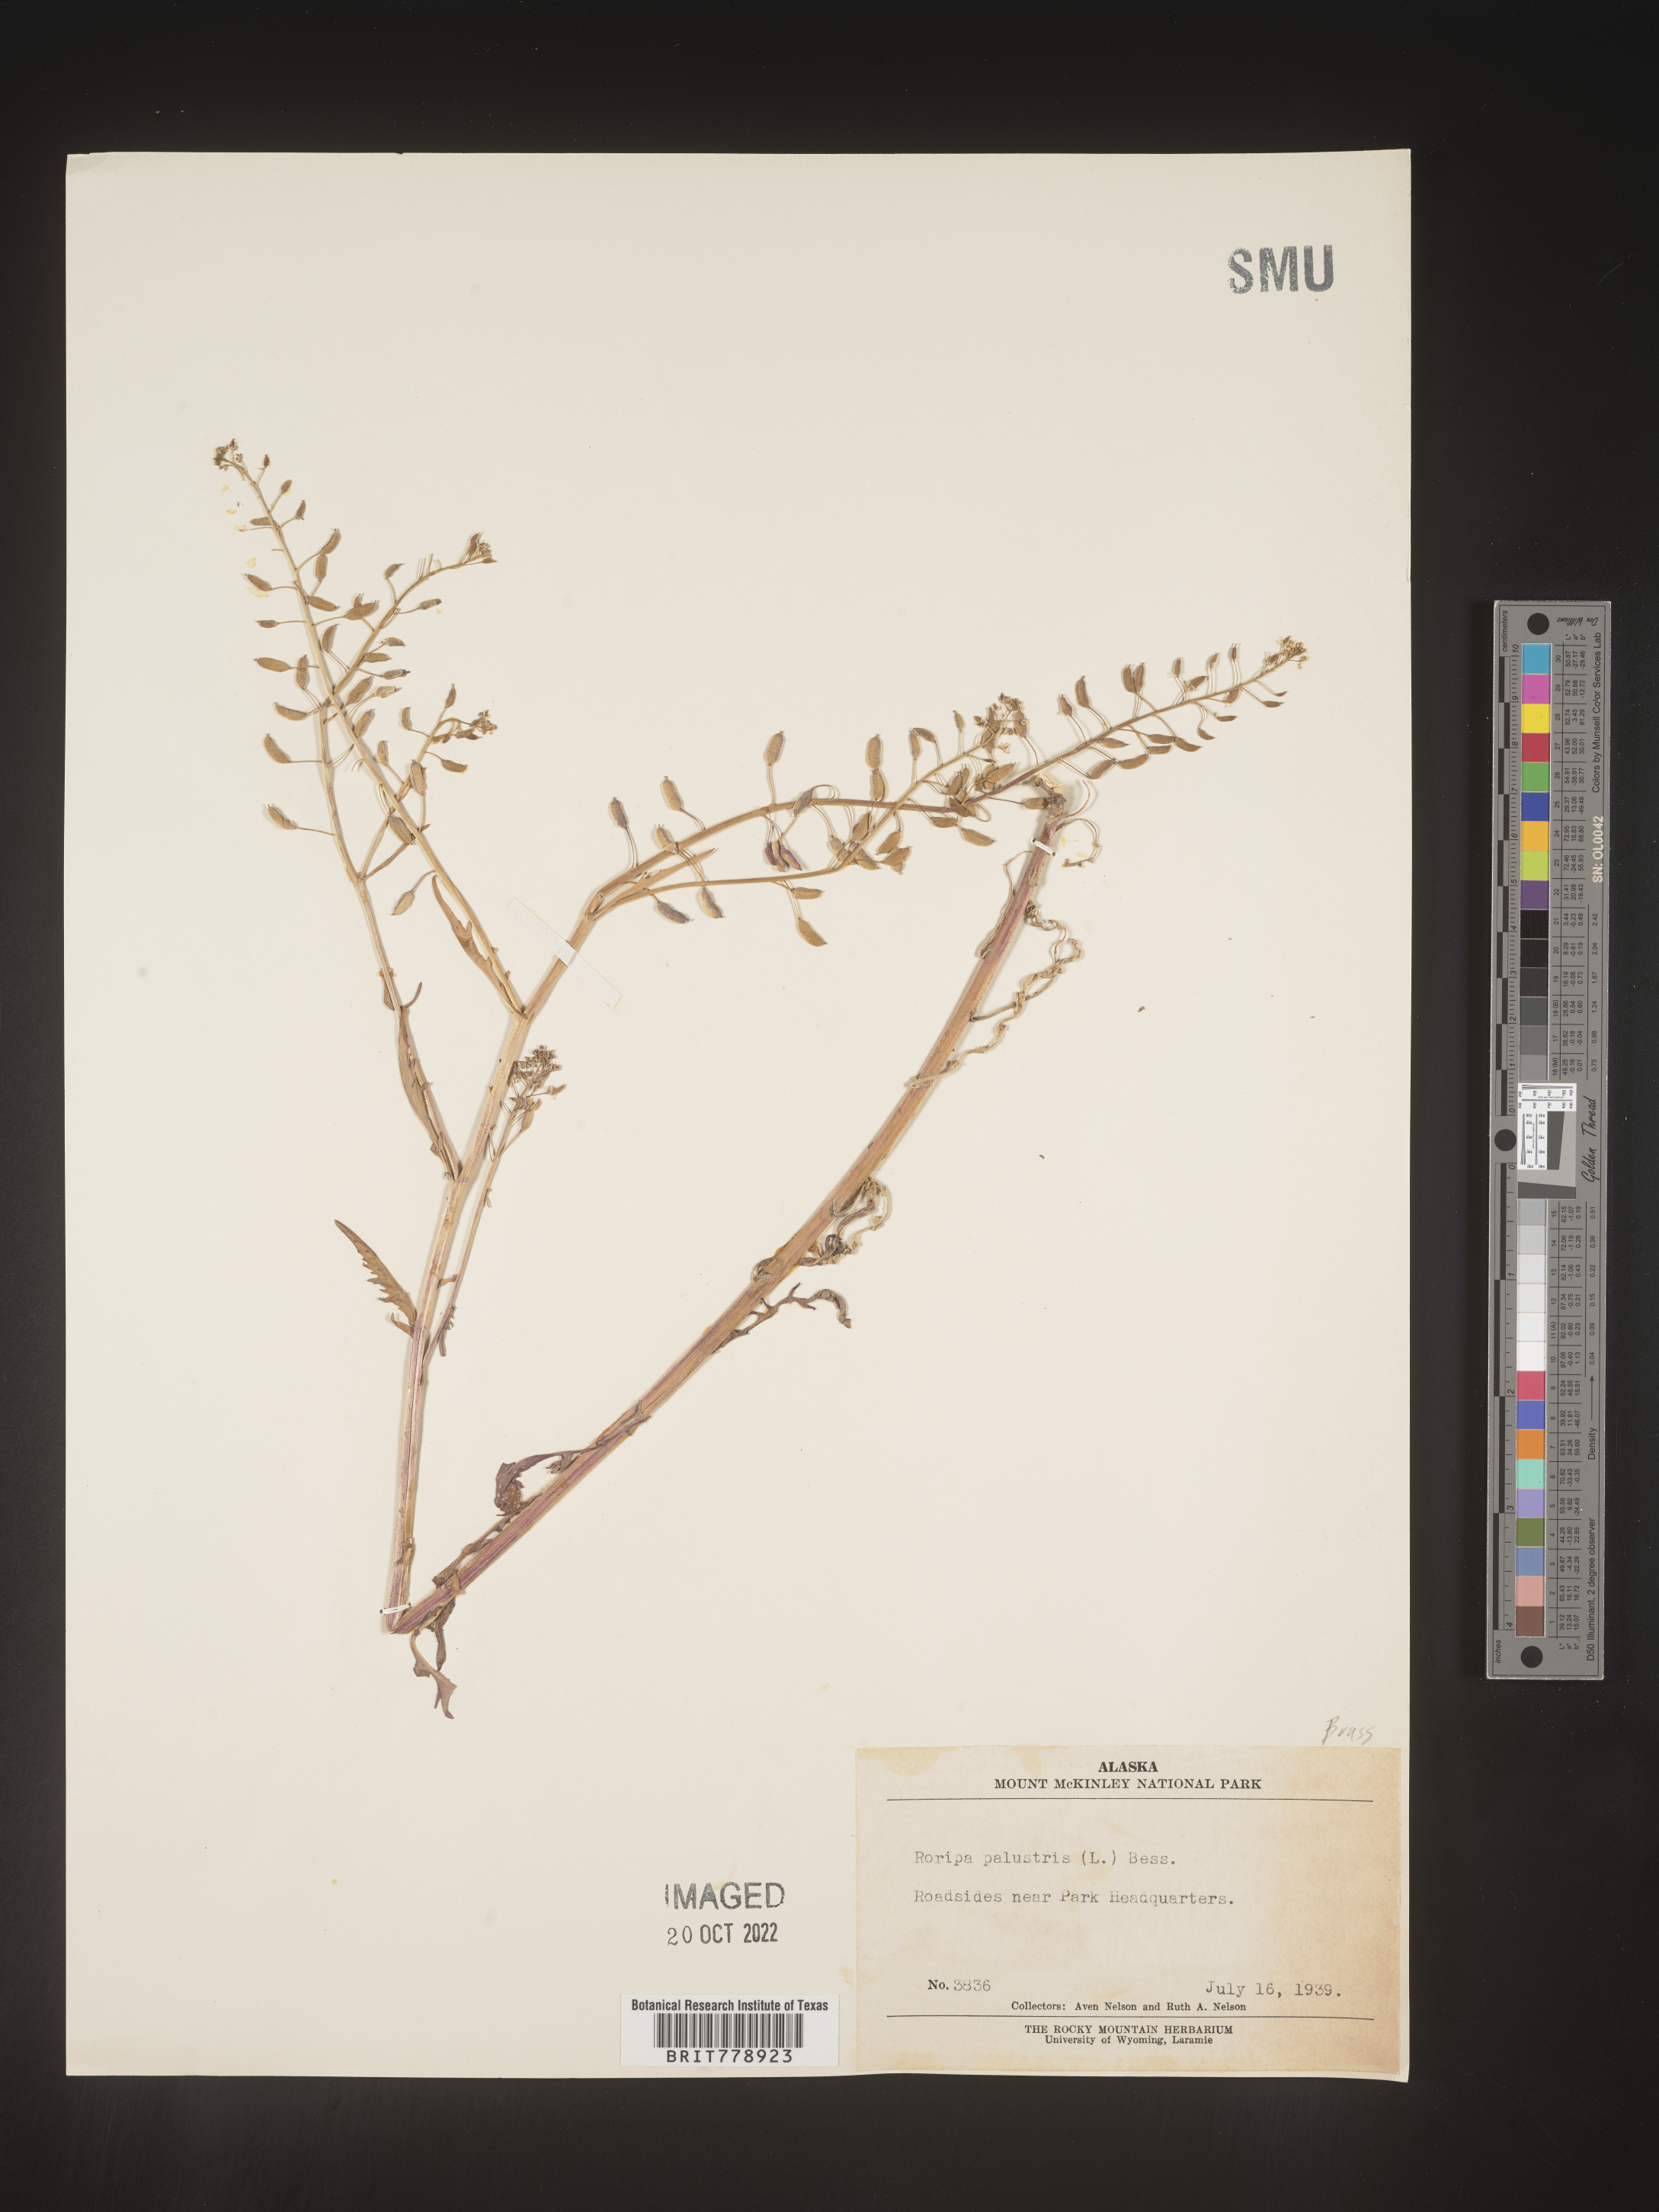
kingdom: Plantae
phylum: Tracheophyta
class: Magnoliopsida
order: Brassicales
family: Brassicaceae
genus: Rorippa
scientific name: Rorippa palustris
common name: Marsh yellow-cress
